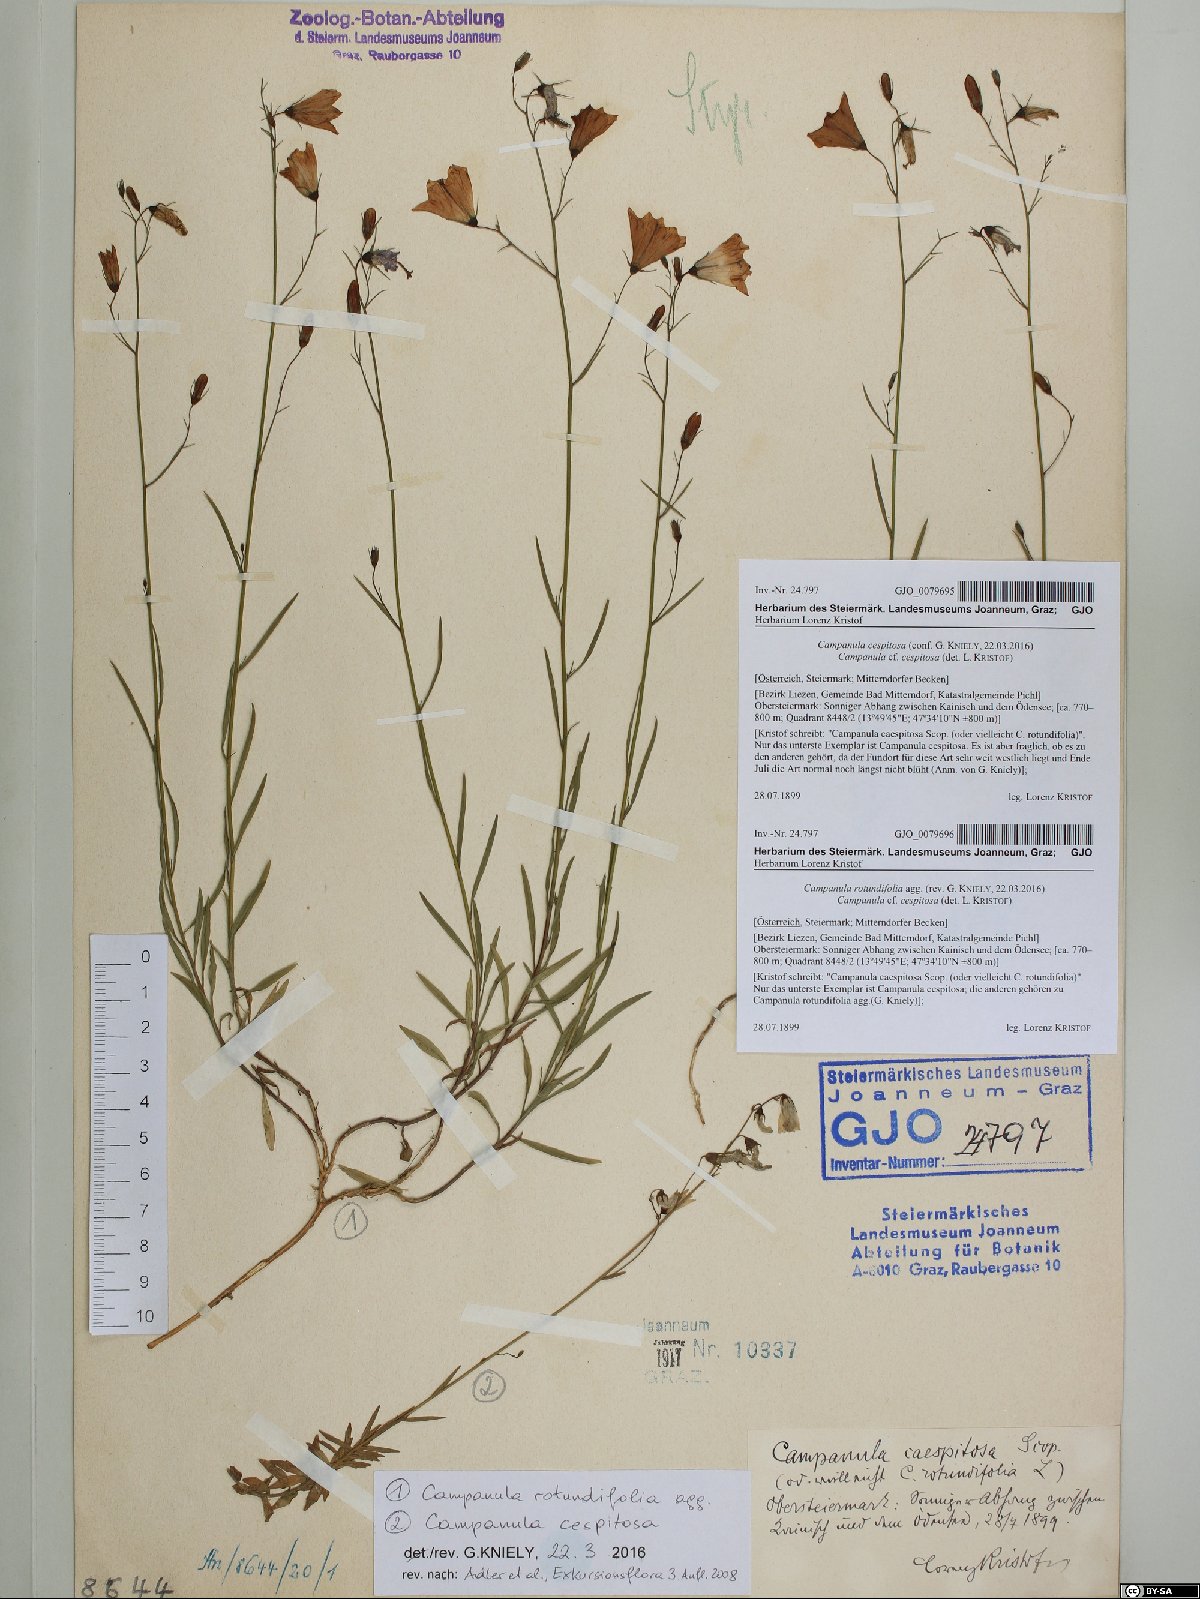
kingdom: Plantae
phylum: Tracheophyta
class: Magnoliopsida
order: Asterales
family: Campanulaceae
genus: Campanula
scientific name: Campanula rotundifolia
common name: Harebell
